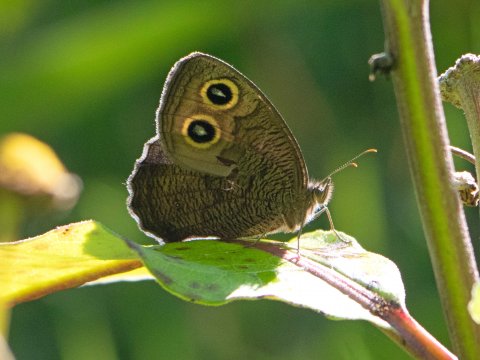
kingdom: Animalia
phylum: Arthropoda
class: Insecta
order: Lepidoptera
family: Nymphalidae
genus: Cercyonis
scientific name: Cercyonis pegala
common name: Common Wood-Nymph
